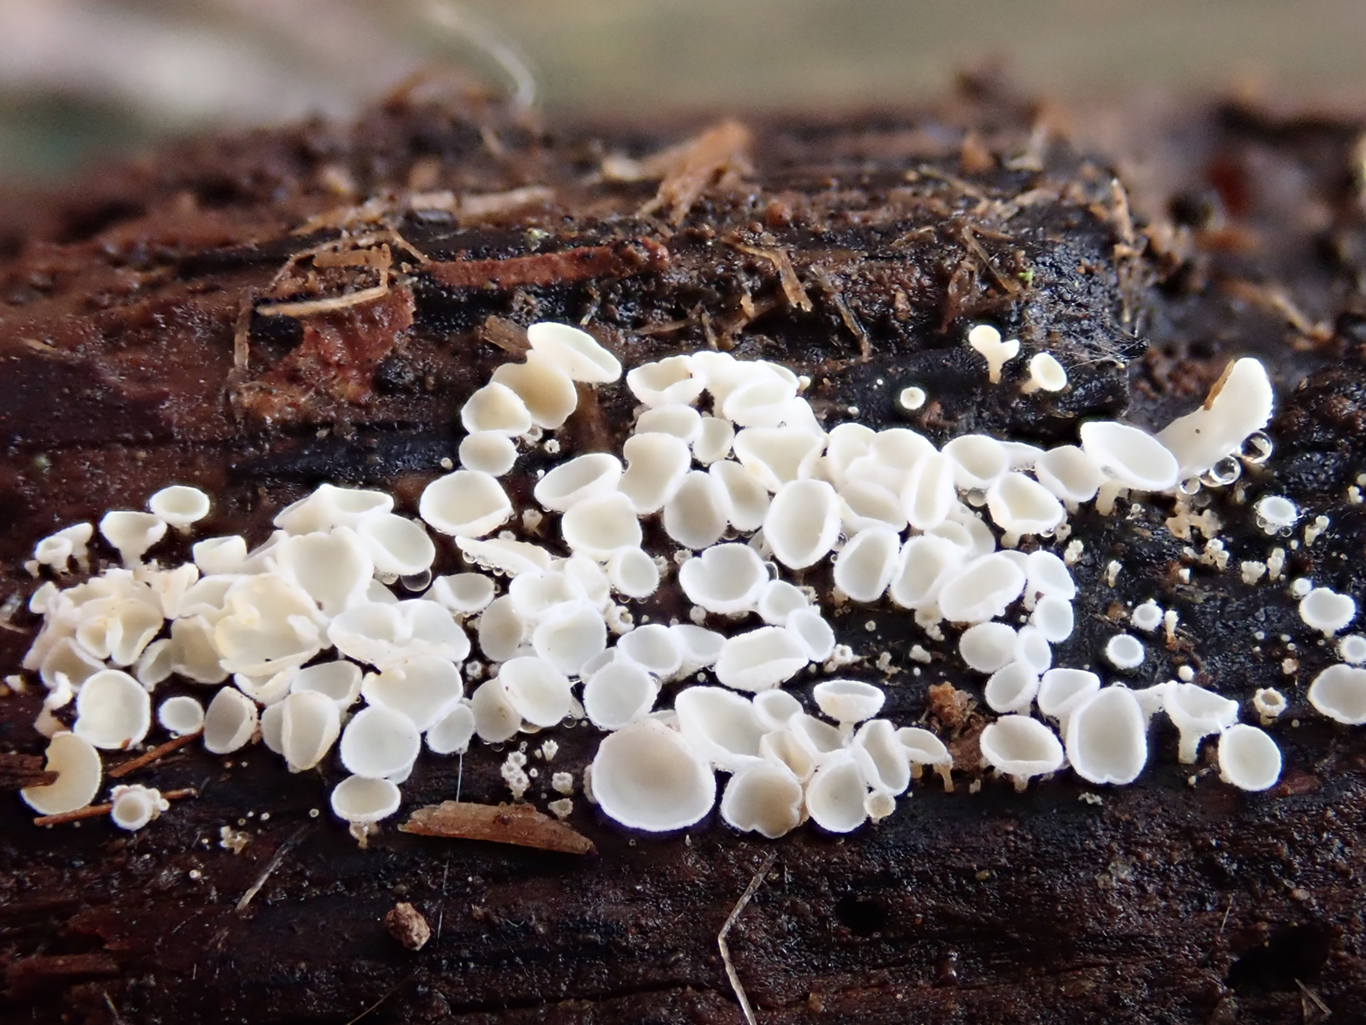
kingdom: Fungi
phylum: Ascomycota
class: Leotiomycetes
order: Helotiales
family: Lachnaceae
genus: Lachnum
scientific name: Lachnum impudicum
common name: vinter-frynseskive
